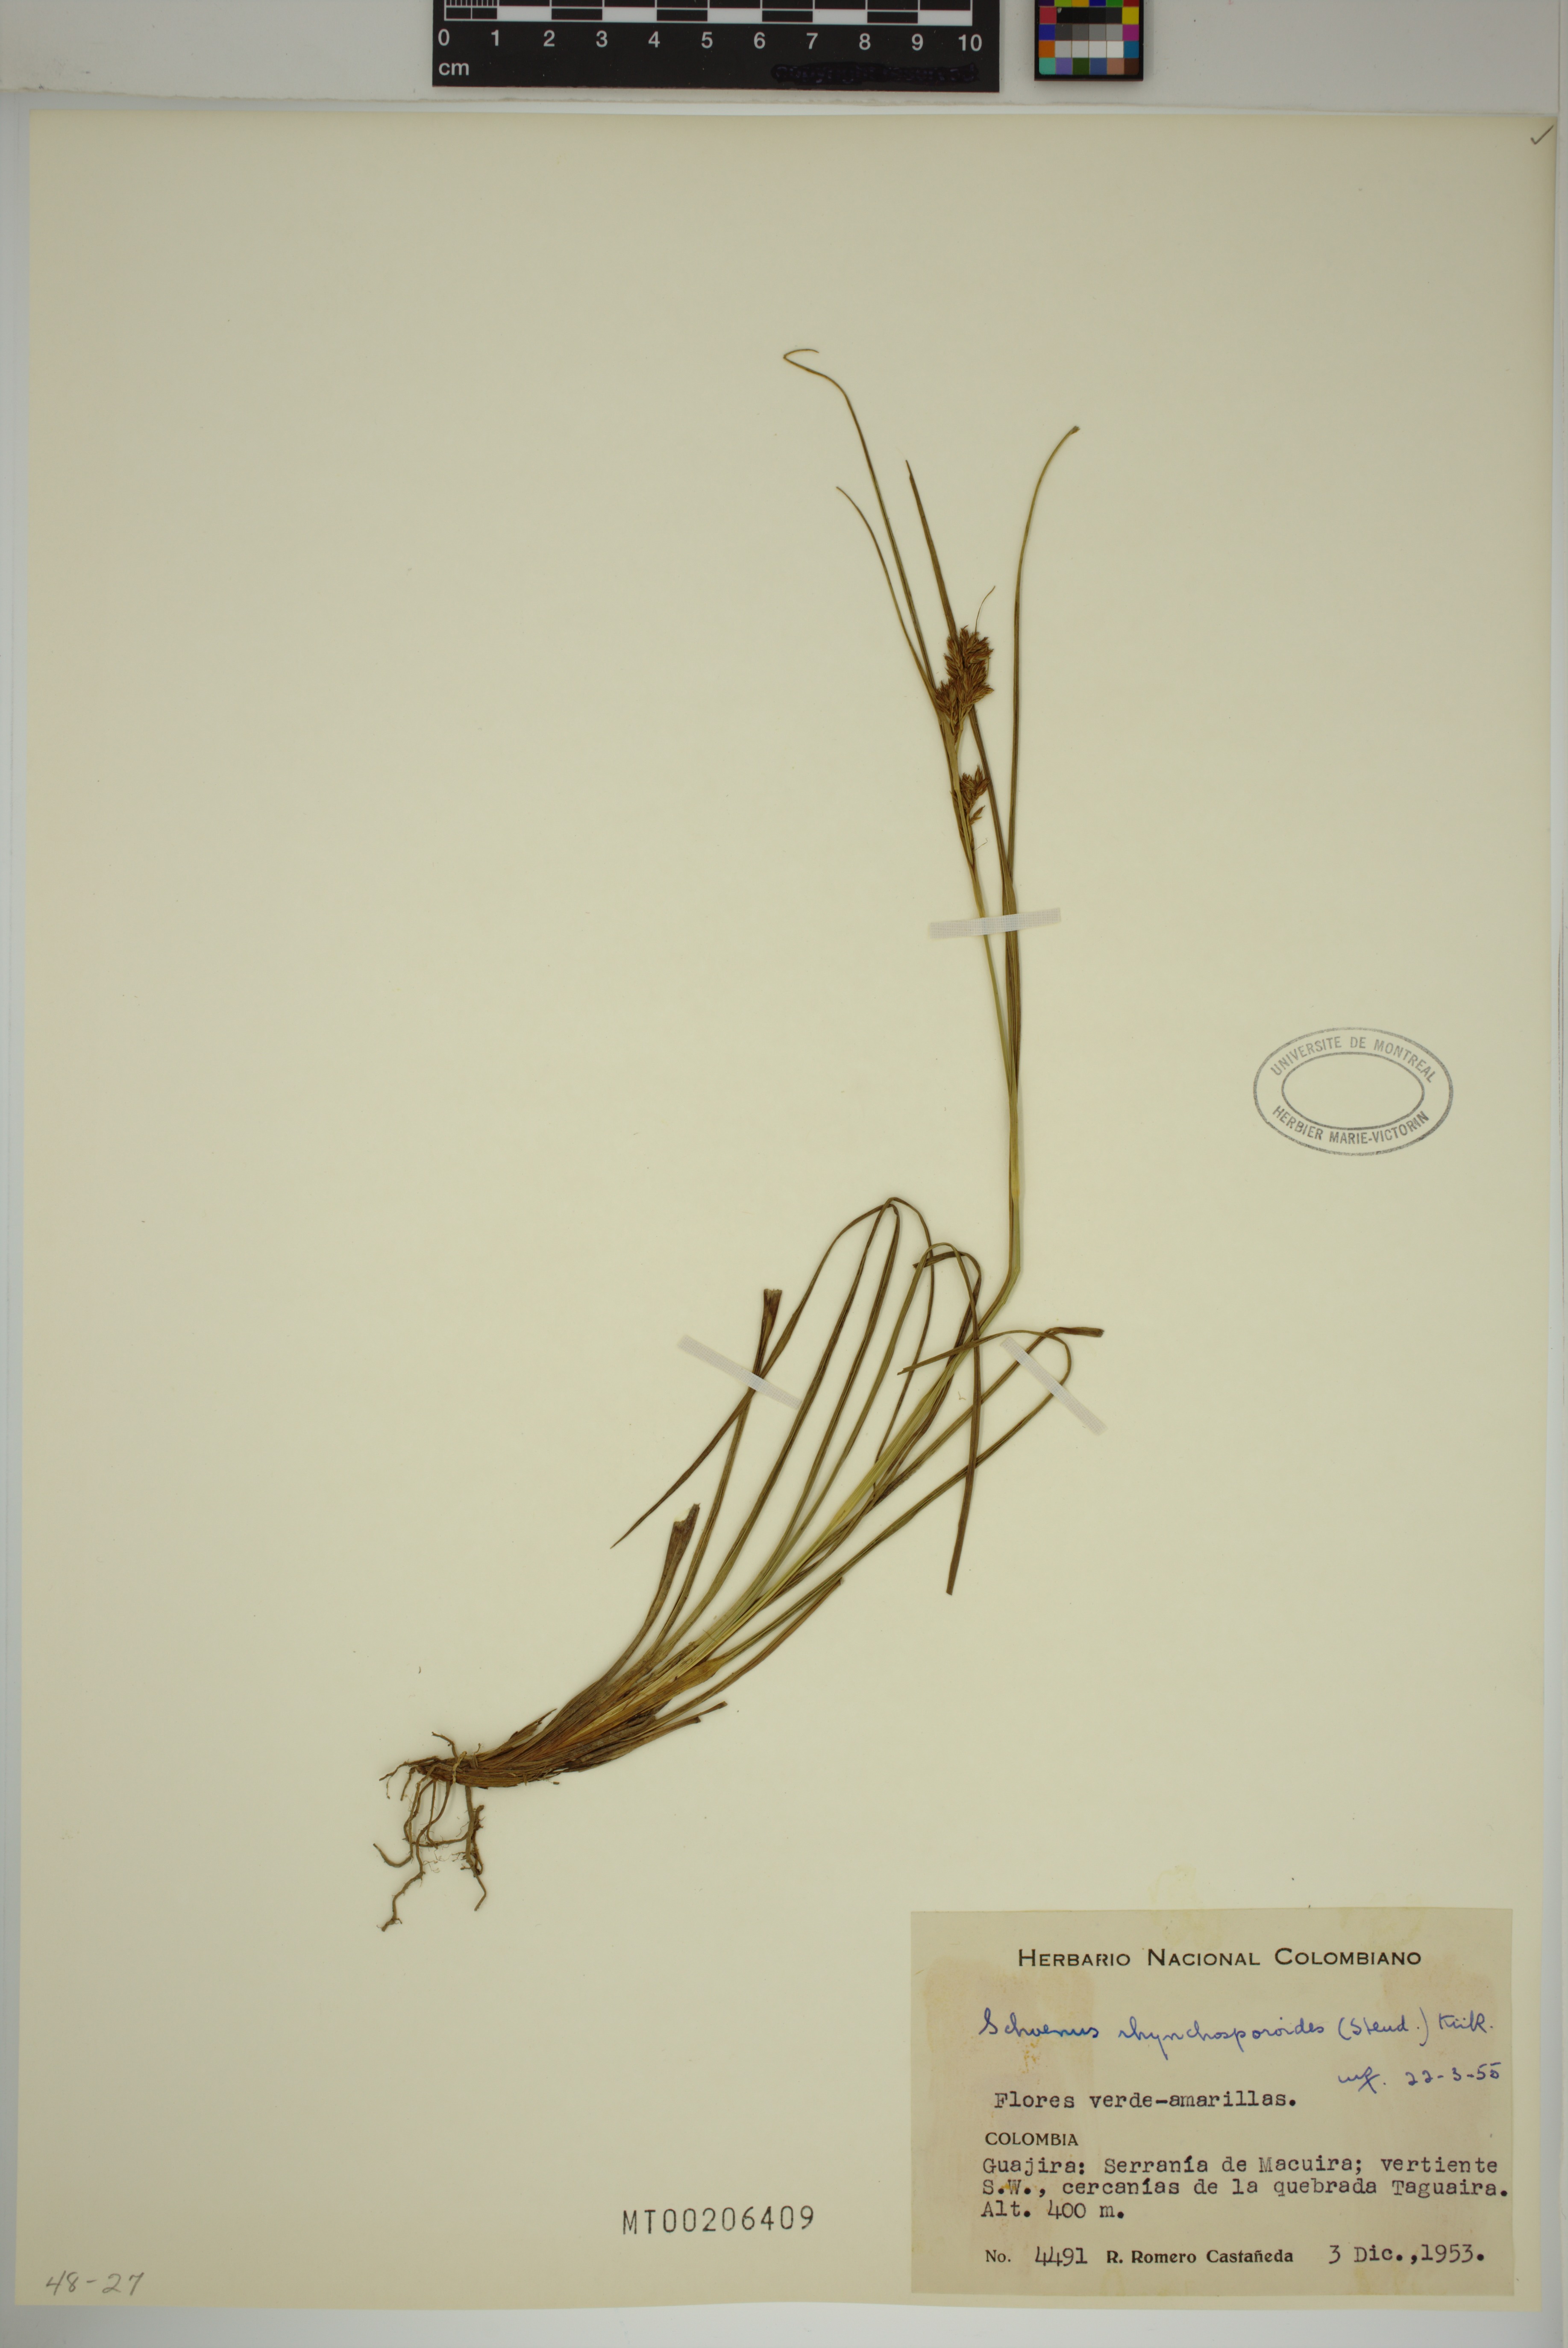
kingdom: Plantae
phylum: Tracheophyta
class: Liliopsida
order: Poales
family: Cyperaceae
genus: Schoenus
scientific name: Schoenus rhynchosporoides
